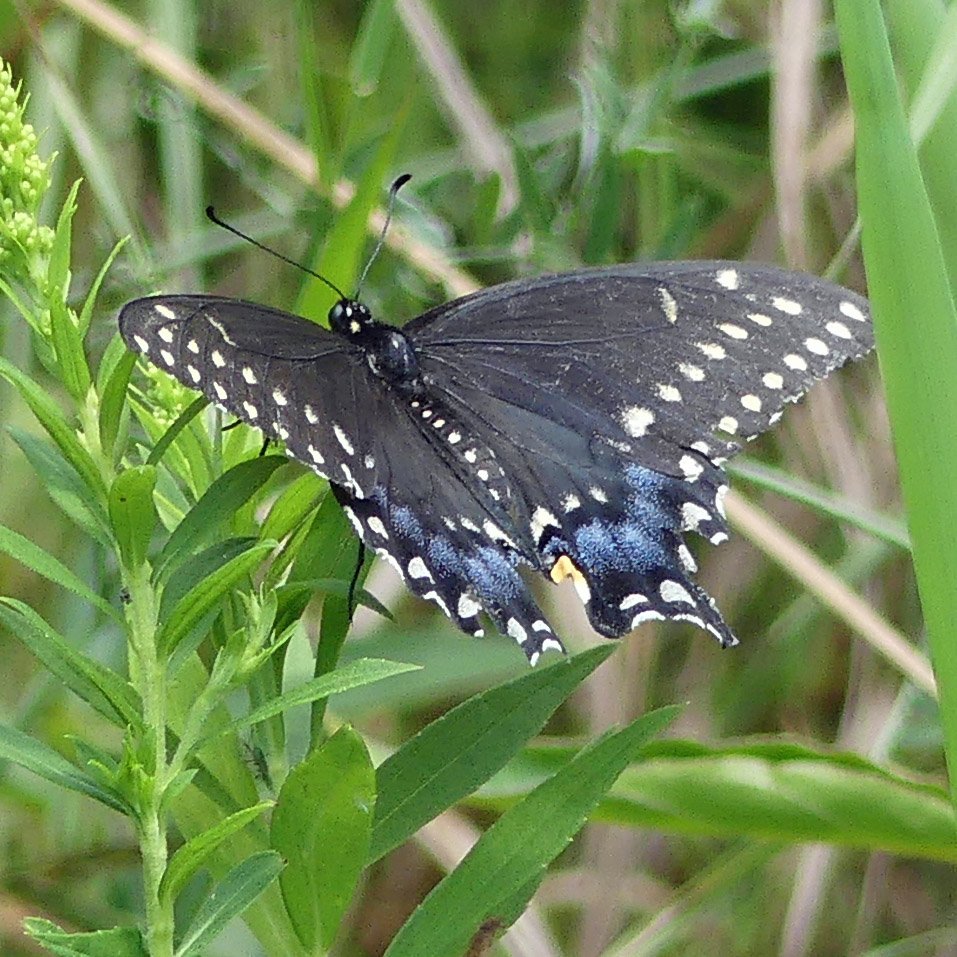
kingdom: Animalia
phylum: Arthropoda
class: Insecta
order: Lepidoptera
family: Papilionidae
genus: Papilio
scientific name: Papilio polyxenes
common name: Black Swallowtail
